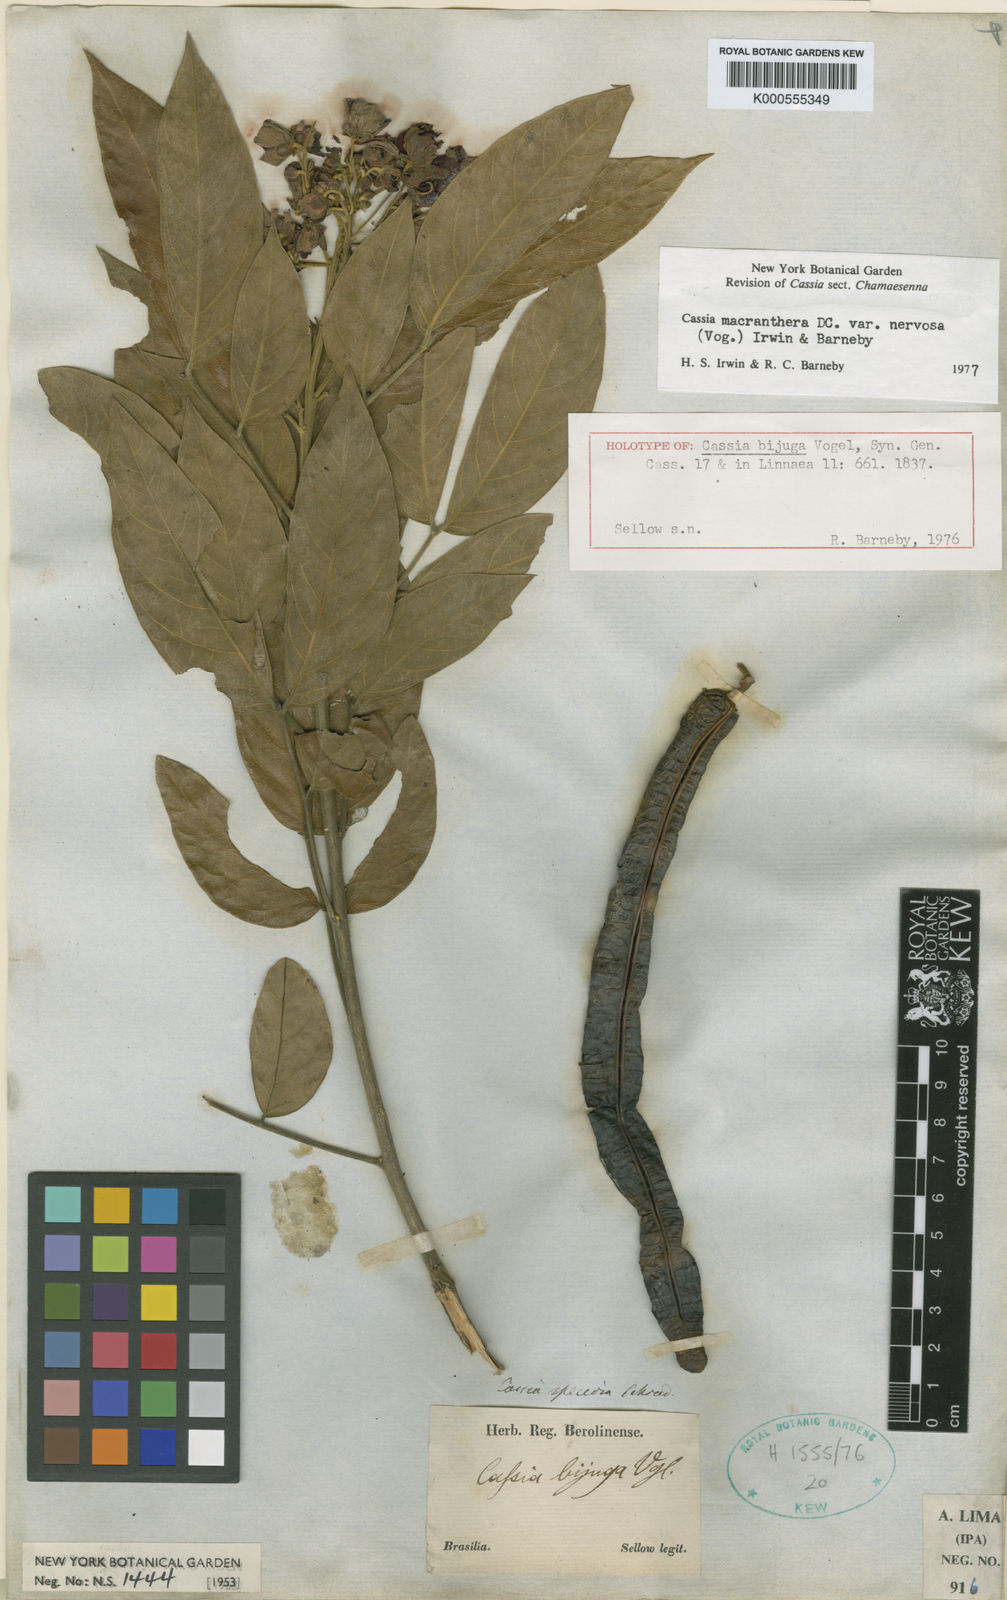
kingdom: Plantae
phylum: Tracheophyta
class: Magnoliopsida
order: Fabales
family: Fabaceae
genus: Senna
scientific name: Senna macranthera
